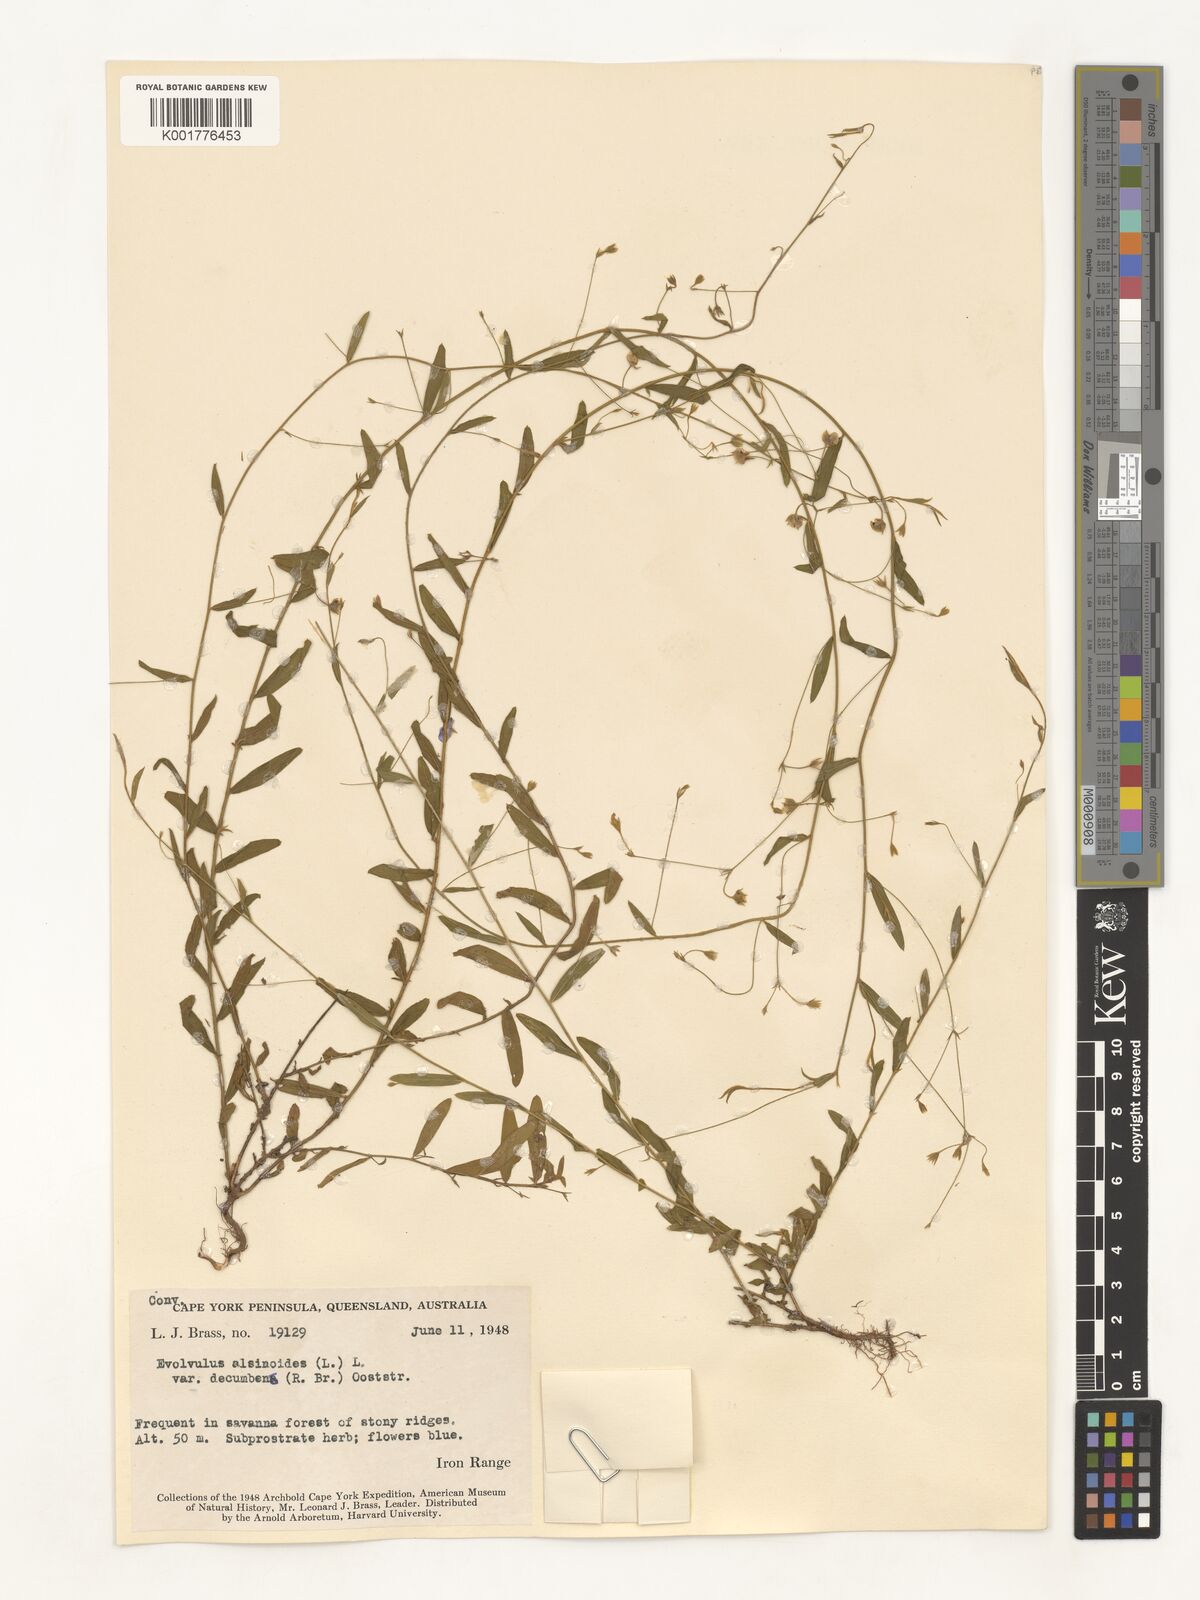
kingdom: Plantae
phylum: Tracheophyta
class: Magnoliopsida
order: Solanales
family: Convolvulaceae
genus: Evolvulus
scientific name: Evolvulus alsinoides
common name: Slender dwarf morning-glory
